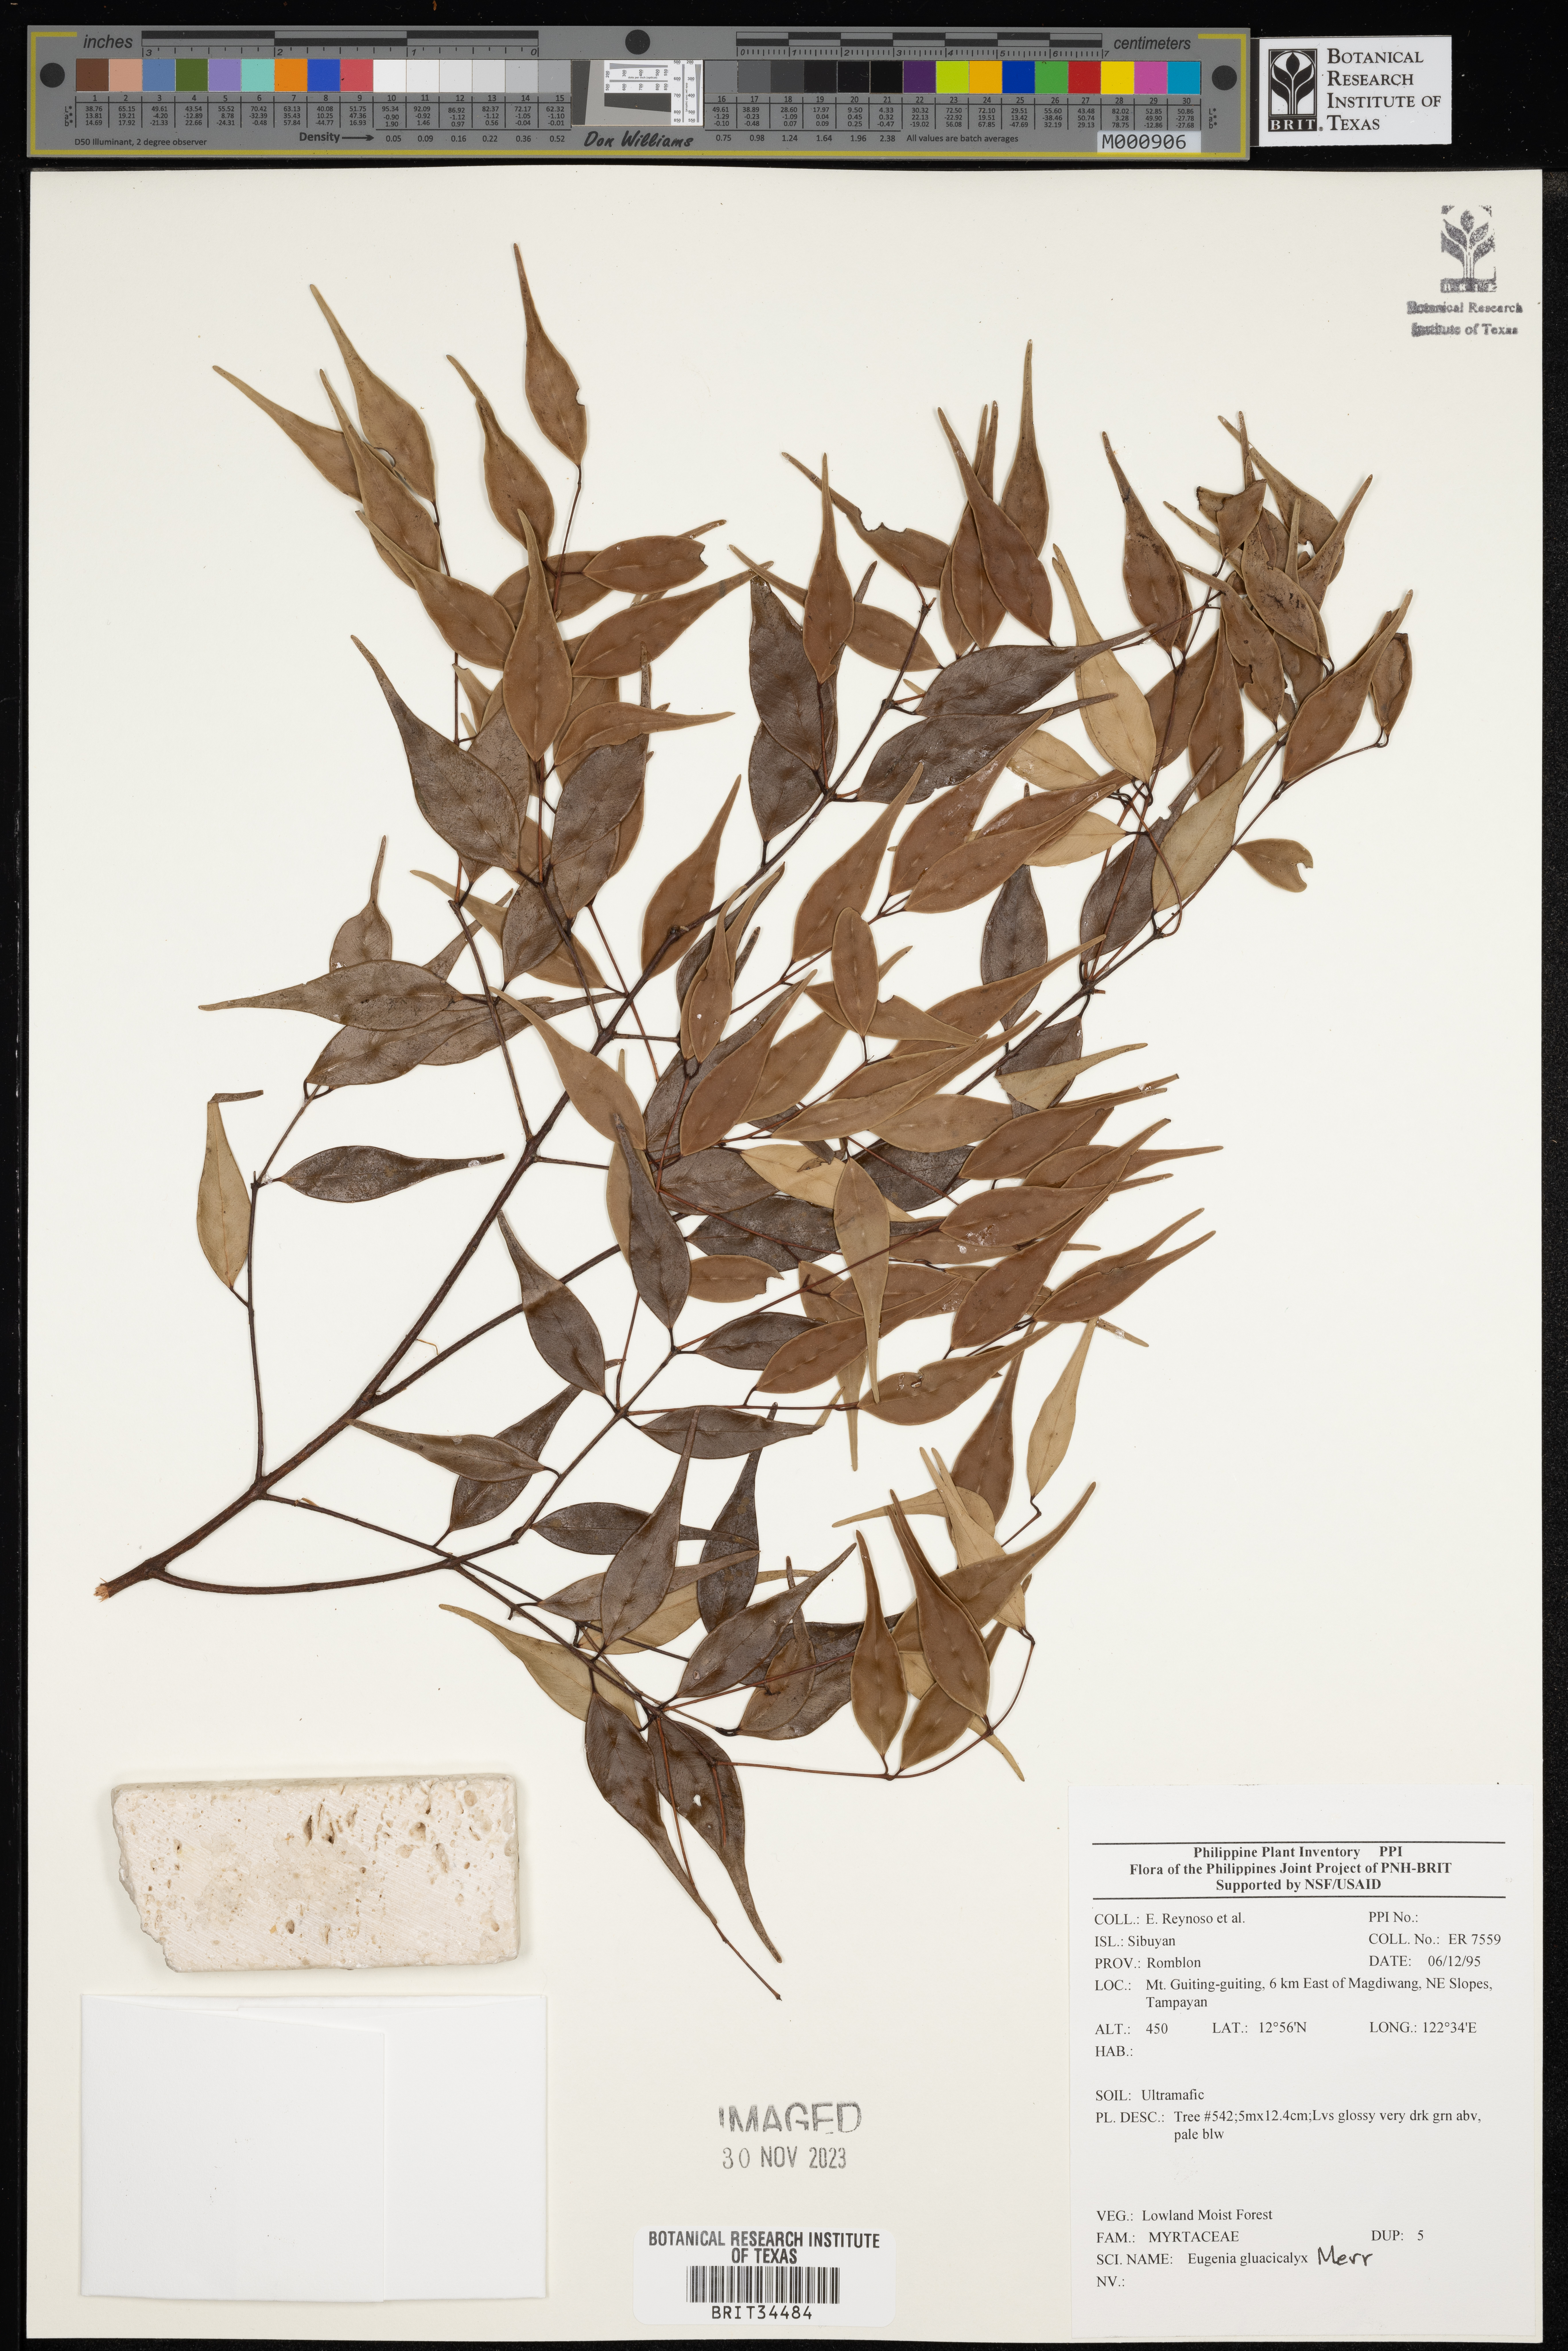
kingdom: Plantae
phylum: Tracheophyta
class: Magnoliopsida
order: Myrtales
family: Myrtaceae
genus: Eugenia
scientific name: Eugenia
